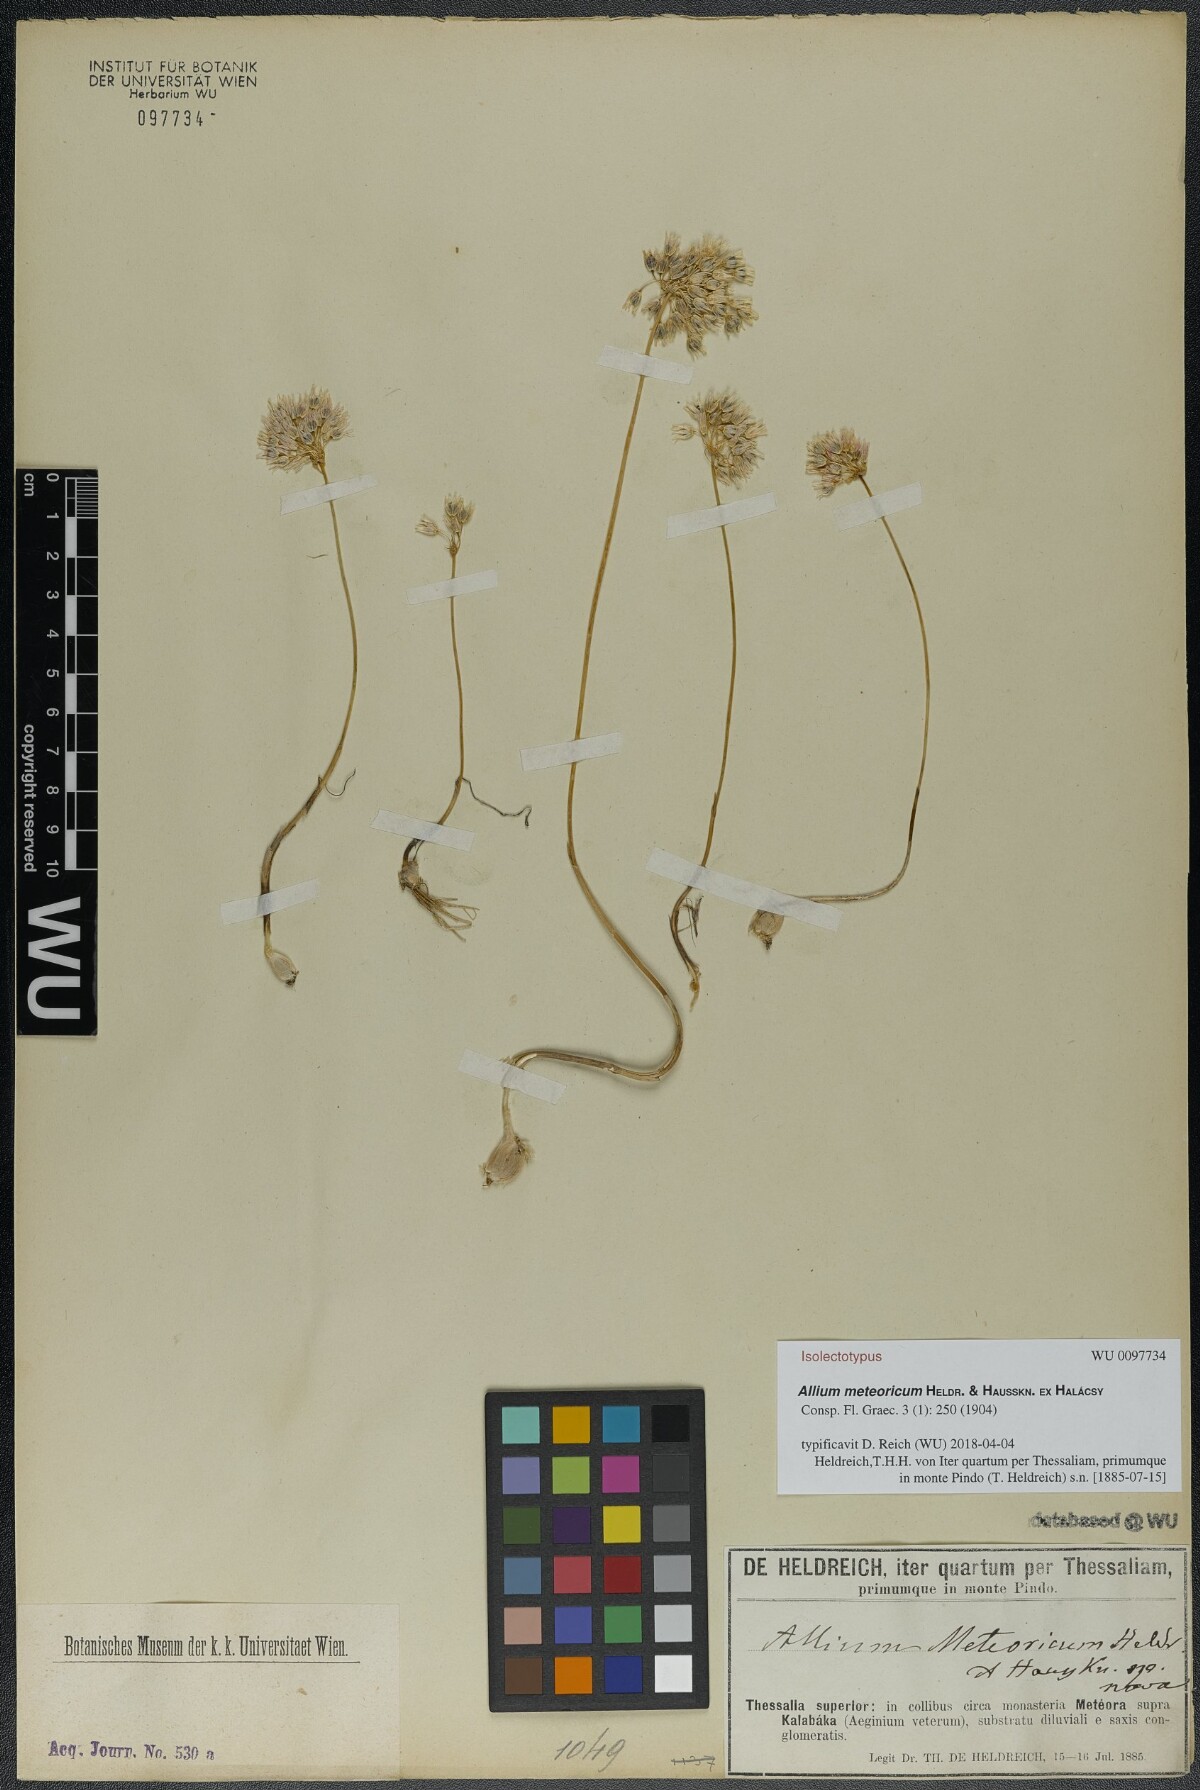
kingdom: Plantae
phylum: Tracheophyta
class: Liliopsida
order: Asparagales
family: Amaryllidaceae
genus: Allium
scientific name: Allium meteoricum
